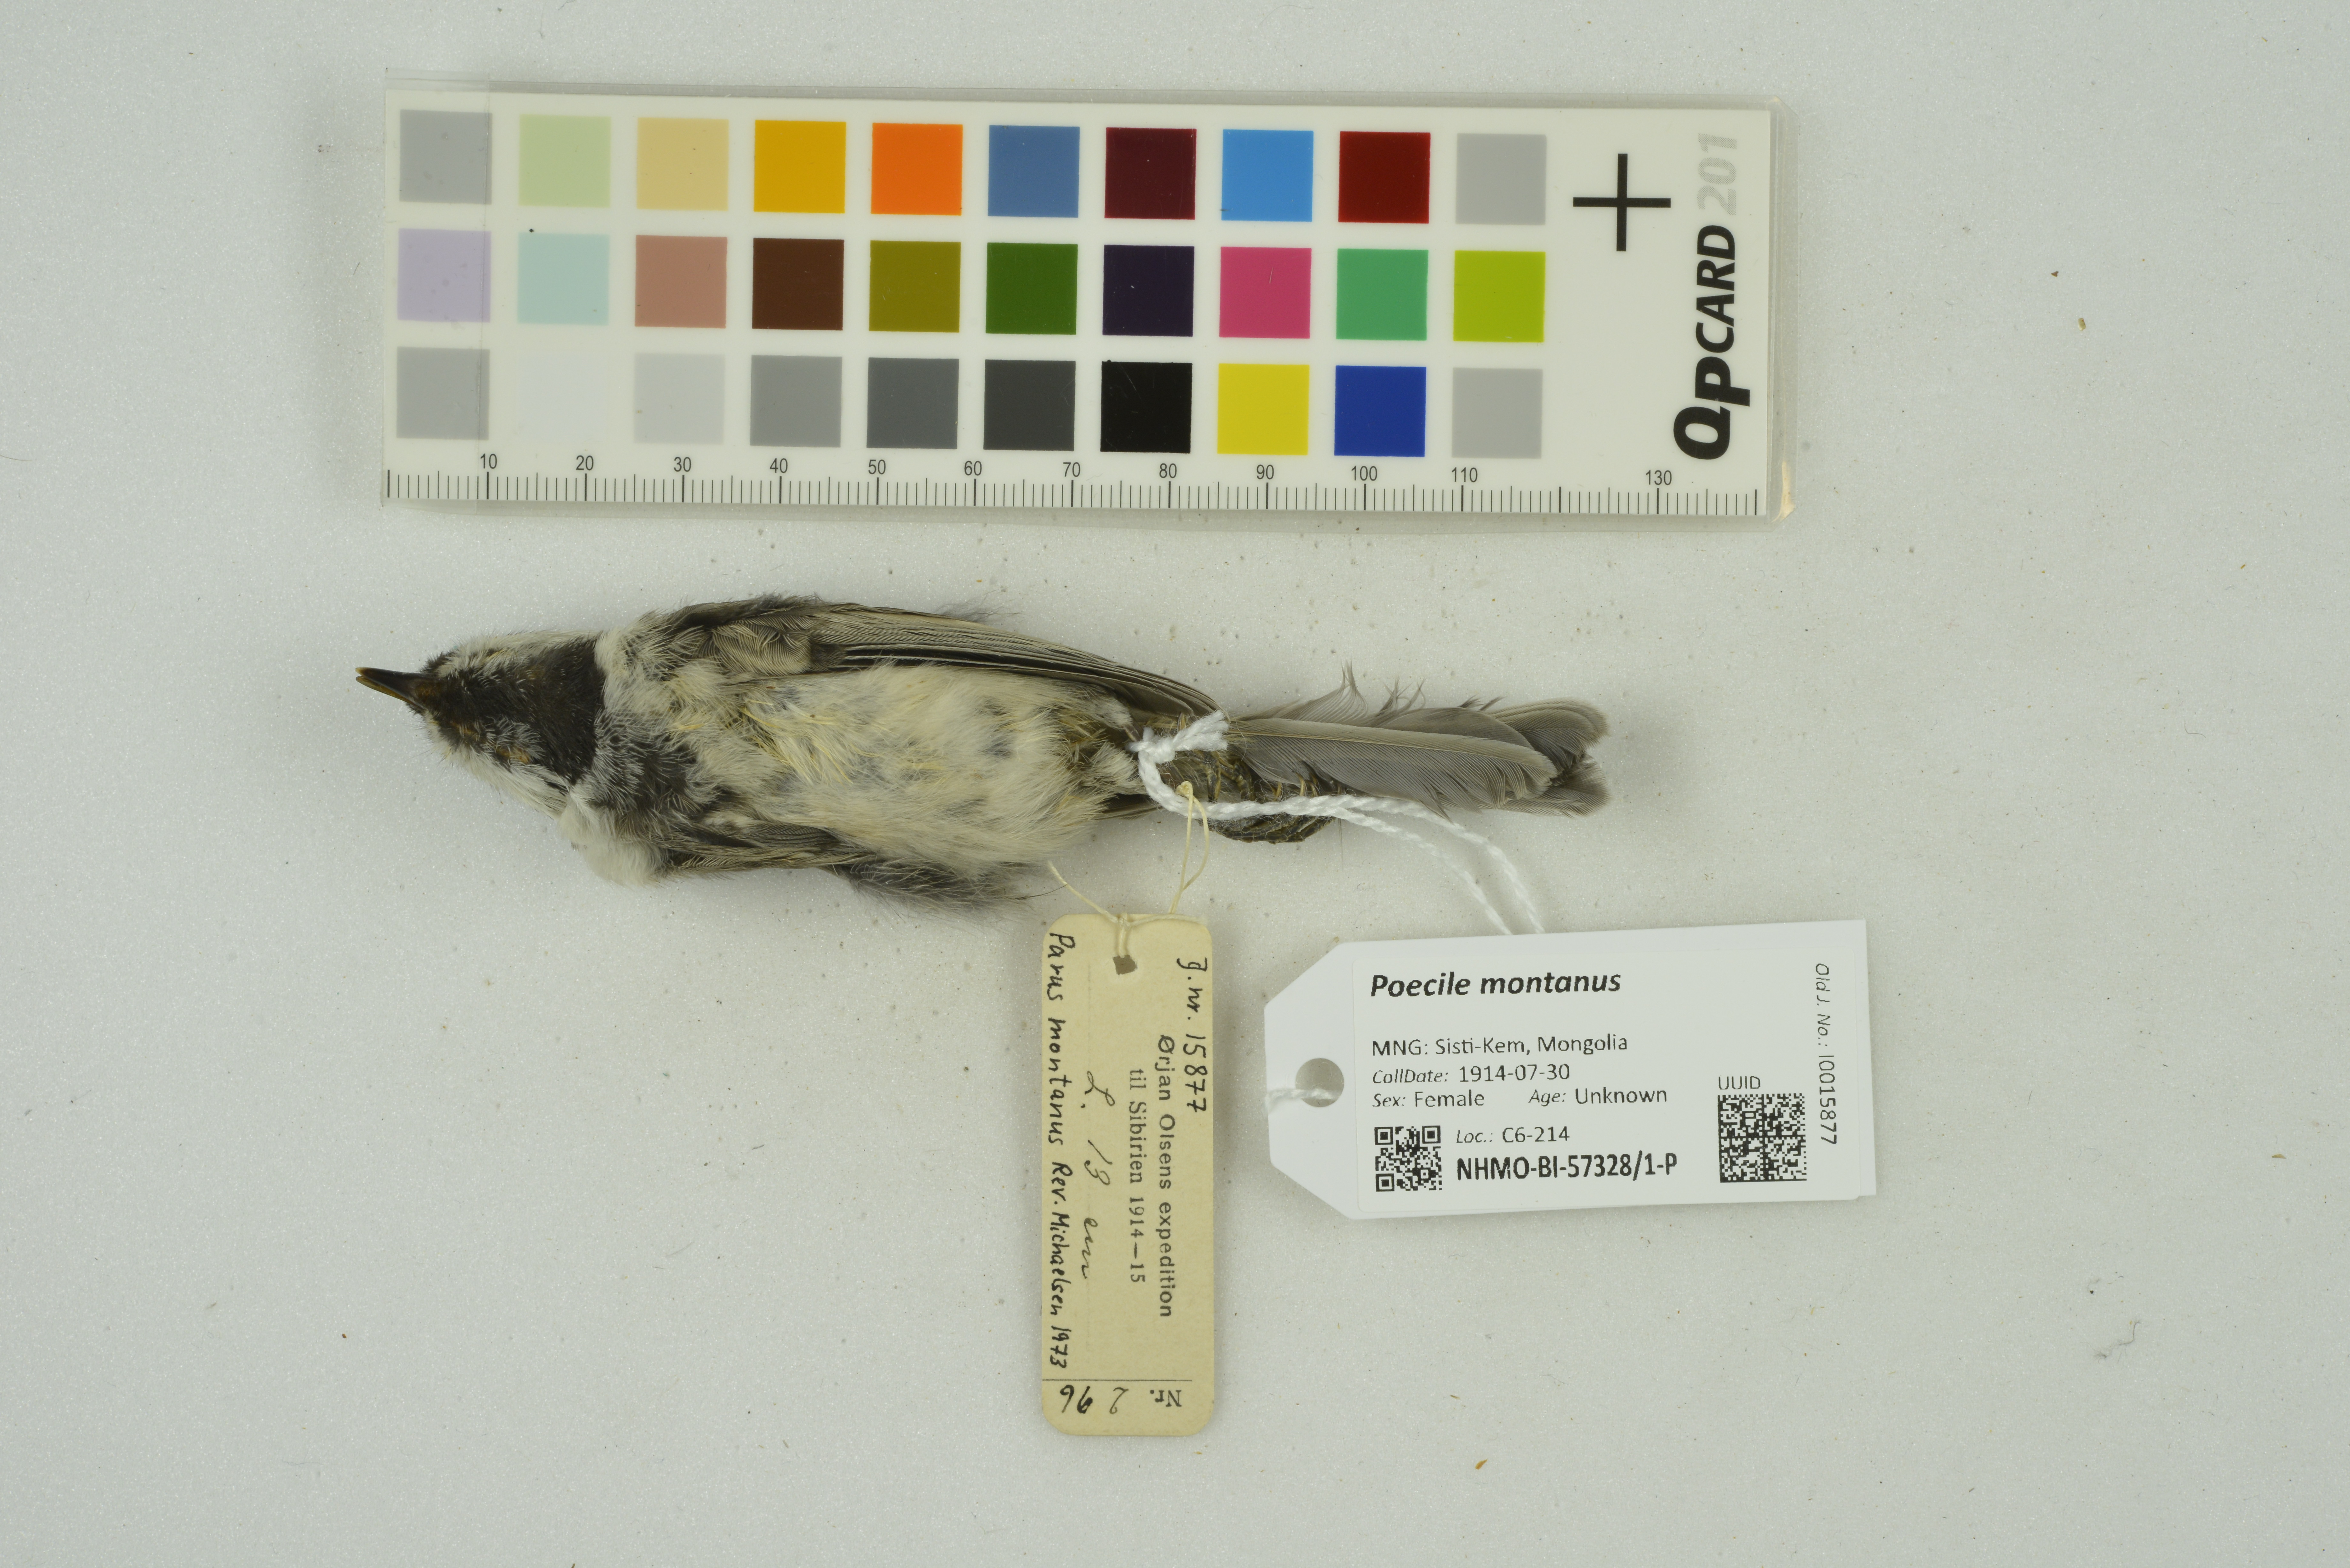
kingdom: Animalia
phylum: Chordata
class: Aves
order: Passeriformes
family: Paridae
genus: Poecile
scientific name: Poecile montanus
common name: Willow tit
